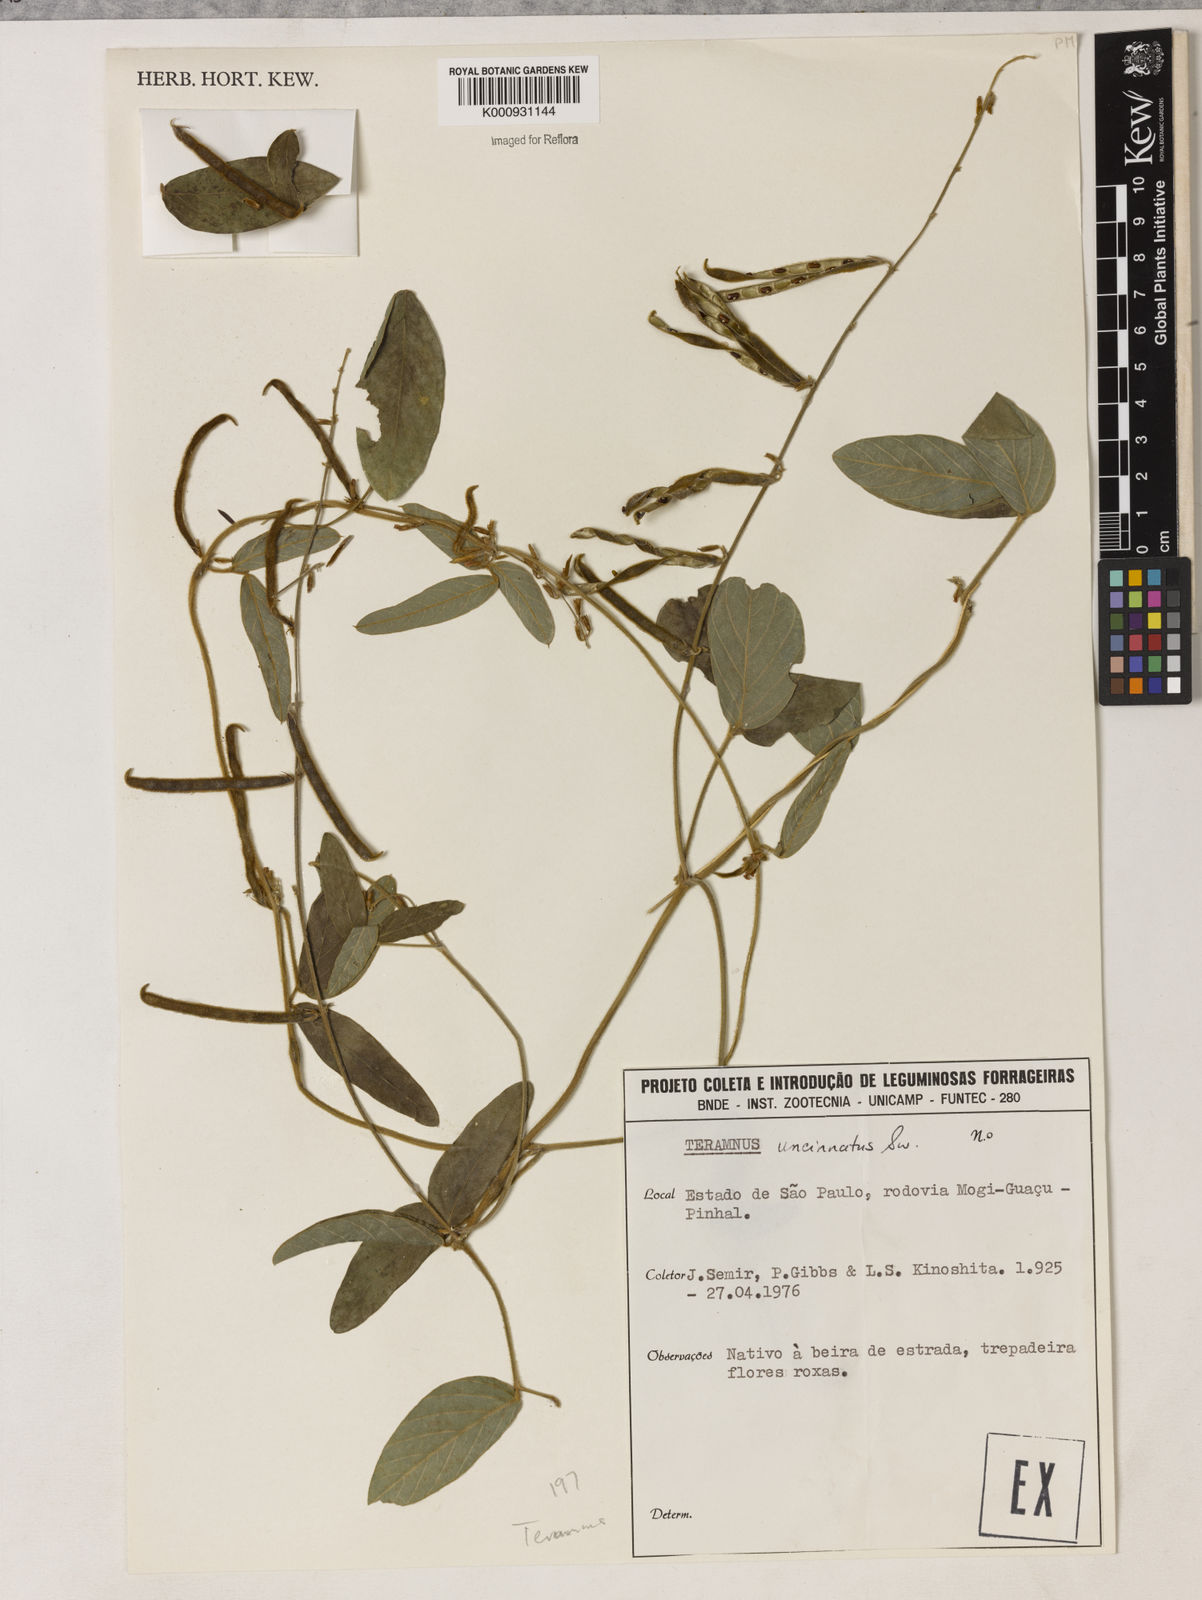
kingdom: Plantae
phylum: Tracheophyta
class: Magnoliopsida
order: Fabales
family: Fabaceae
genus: Teramnus
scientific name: Teramnus uncinatus
